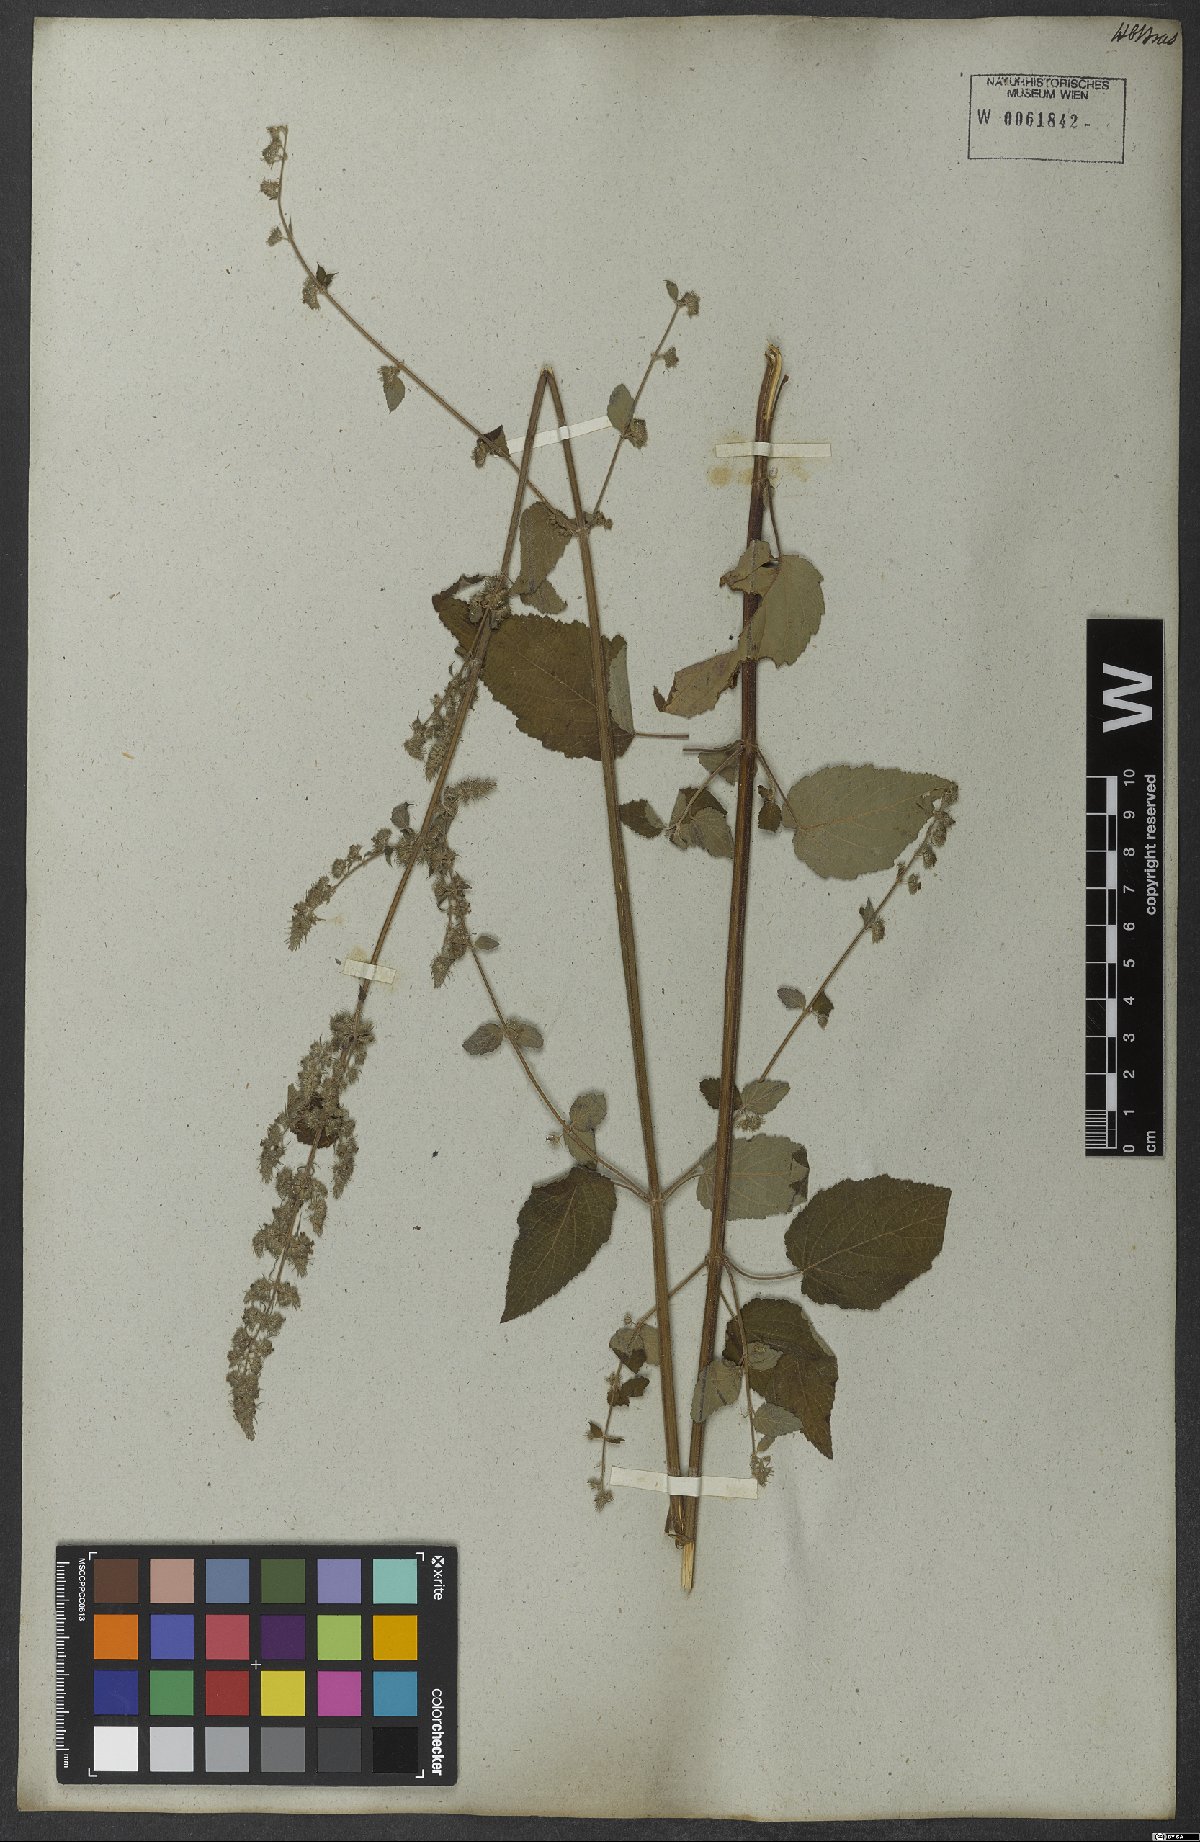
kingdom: Plantae
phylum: Tracheophyta
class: Magnoliopsida
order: Lamiales
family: Lamiaceae
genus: Mesosphaerum
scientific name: Mesosphaerum pectinatum
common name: Comb hyptis
